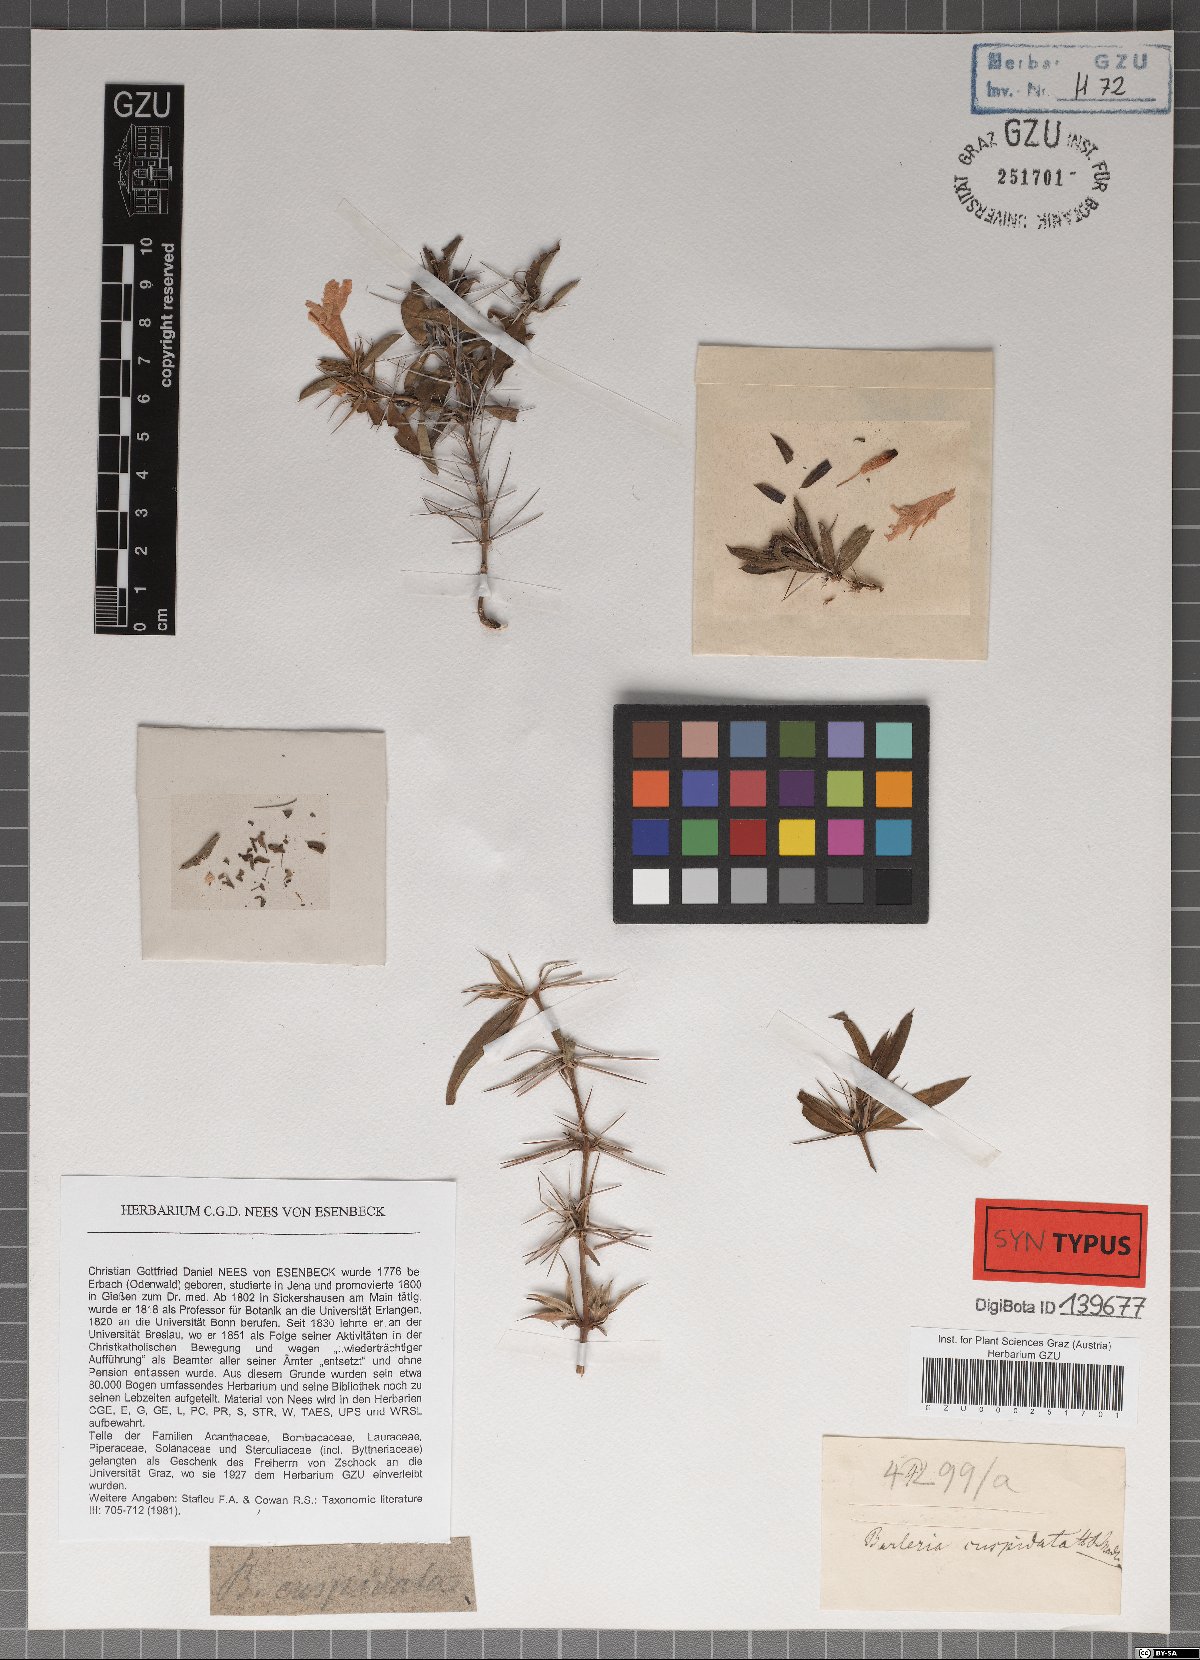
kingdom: Plantae
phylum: Tracheophyta
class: Magnoliopsida
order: Lamiales
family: Acanthaceae
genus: Barleria
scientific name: Barleria cuspidata
